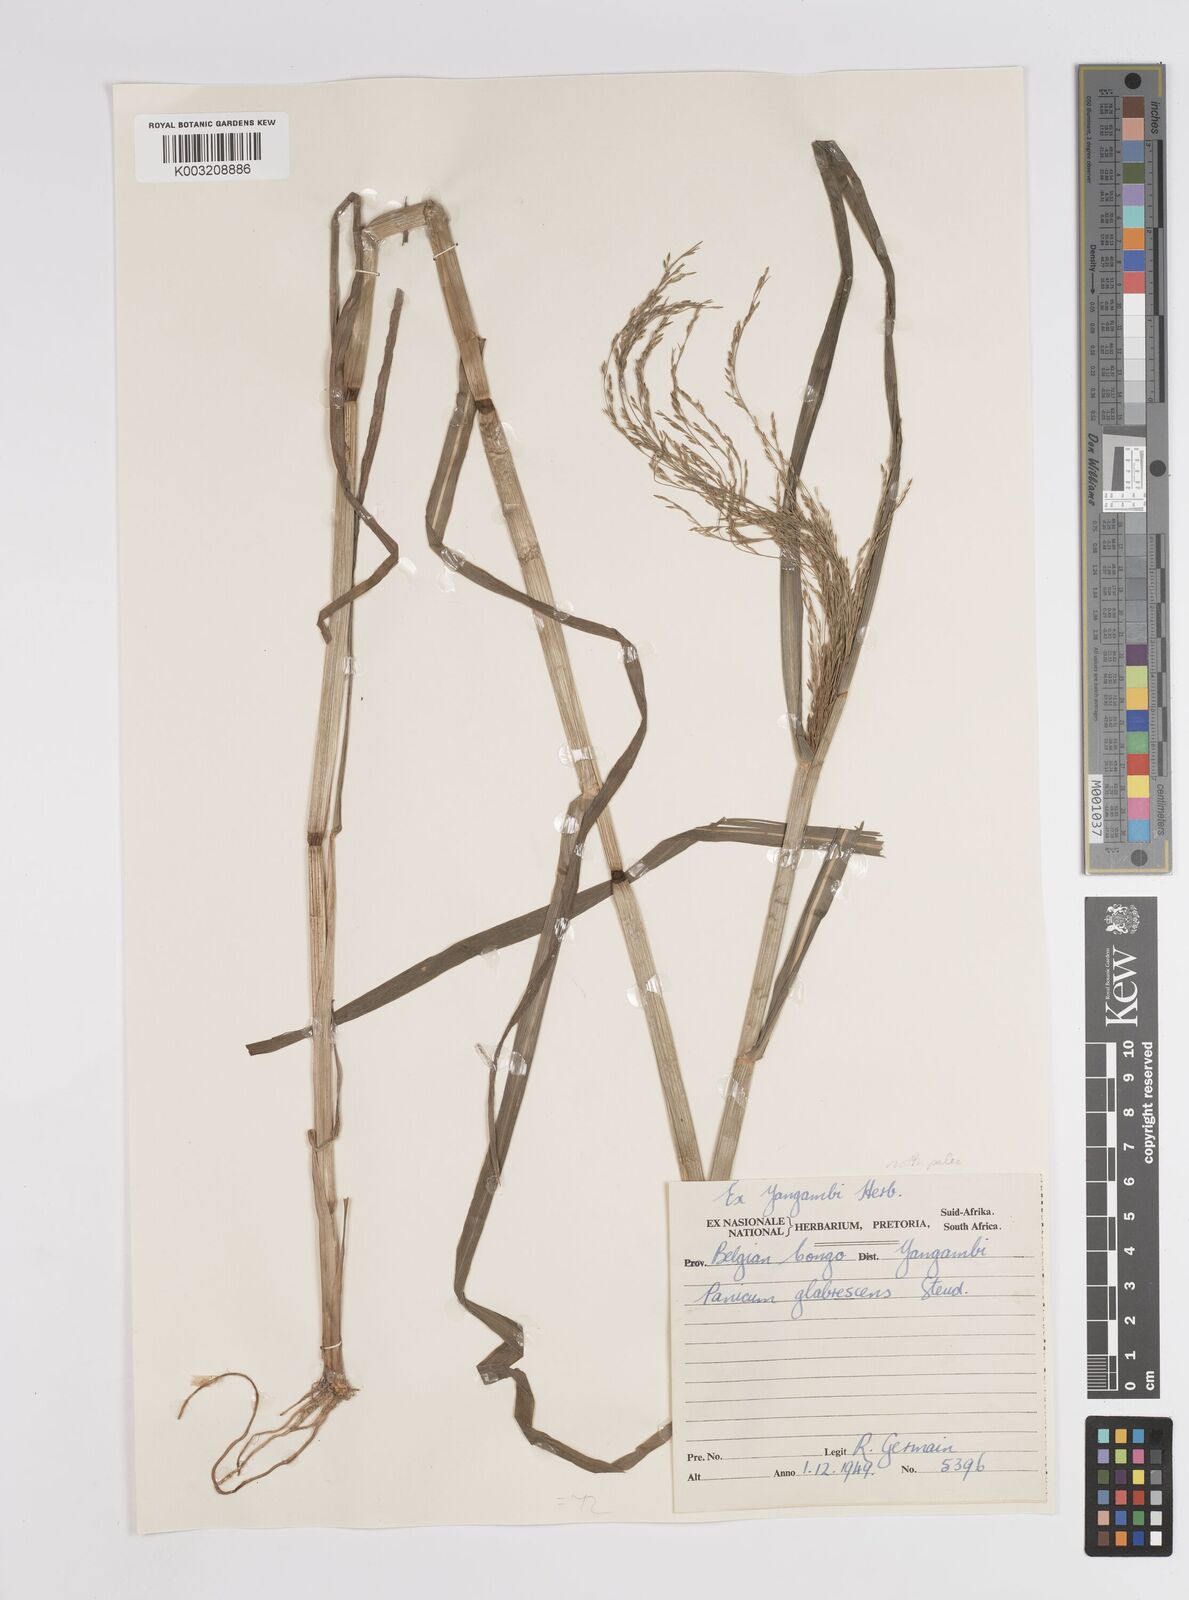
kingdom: Plantae
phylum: Tracheophyta
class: Liliopsida
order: Poales
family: Poaceae
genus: Panicum
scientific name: Panicum subalbidum
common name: Elbow buffalo grass
